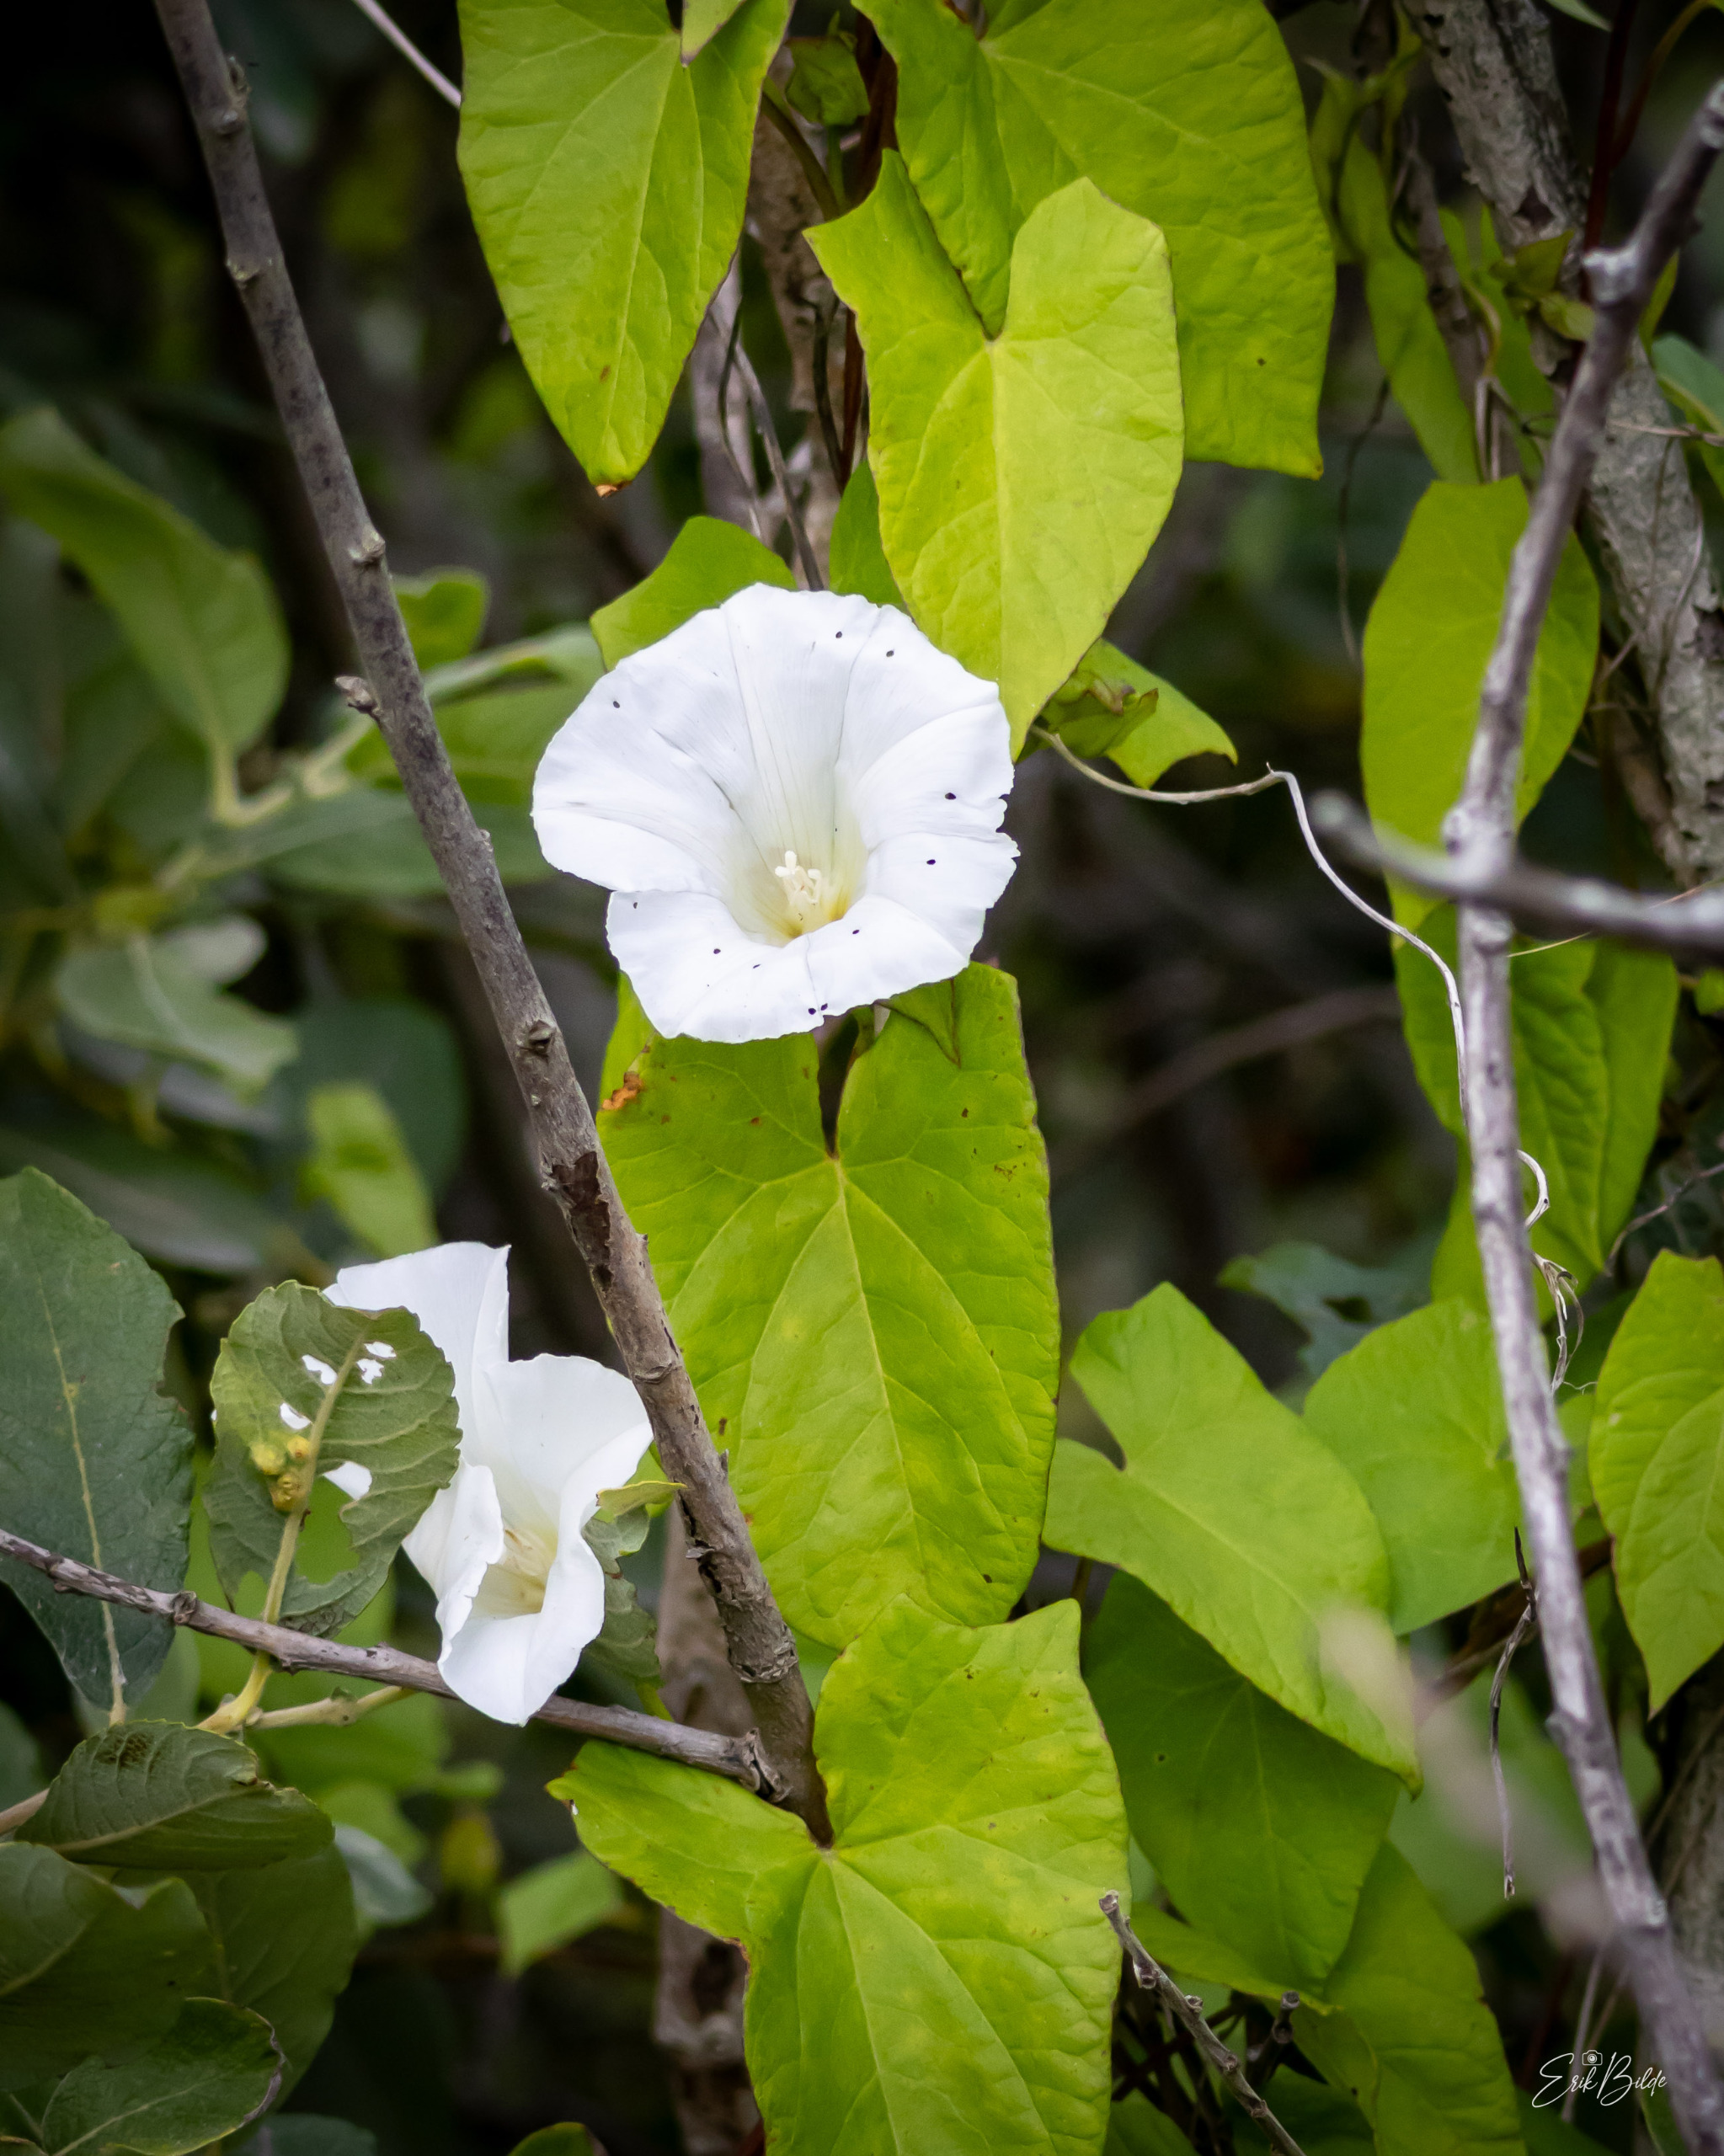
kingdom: Plantae
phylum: Tracheophyta
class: Magnoliopsida
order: Solanales
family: Convolvulaceae
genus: Calystegia
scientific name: Calystegia sepium
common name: Gærde-snerle
